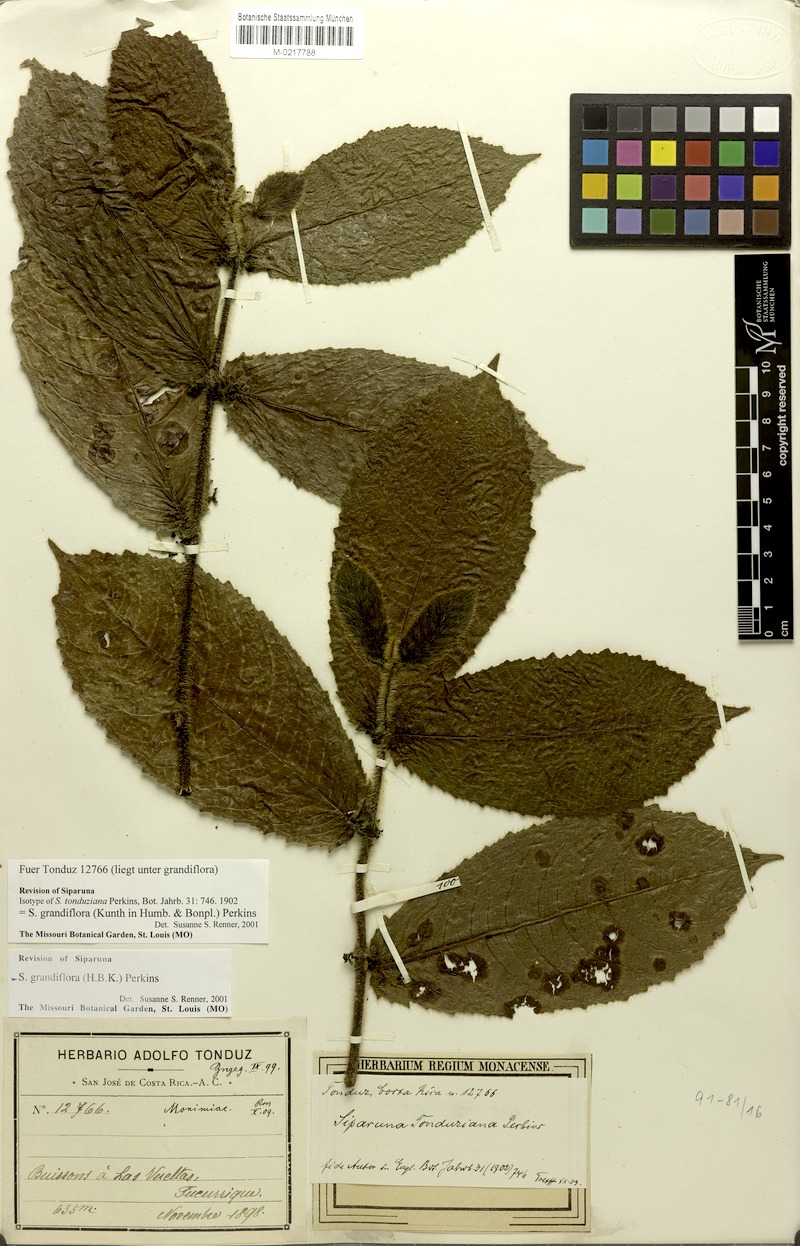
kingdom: Plantae
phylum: Tracheophyta
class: Magnoliopsida
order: Laurales
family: Siparunaceae
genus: Siparuna
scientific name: Siparuna grandiflora
